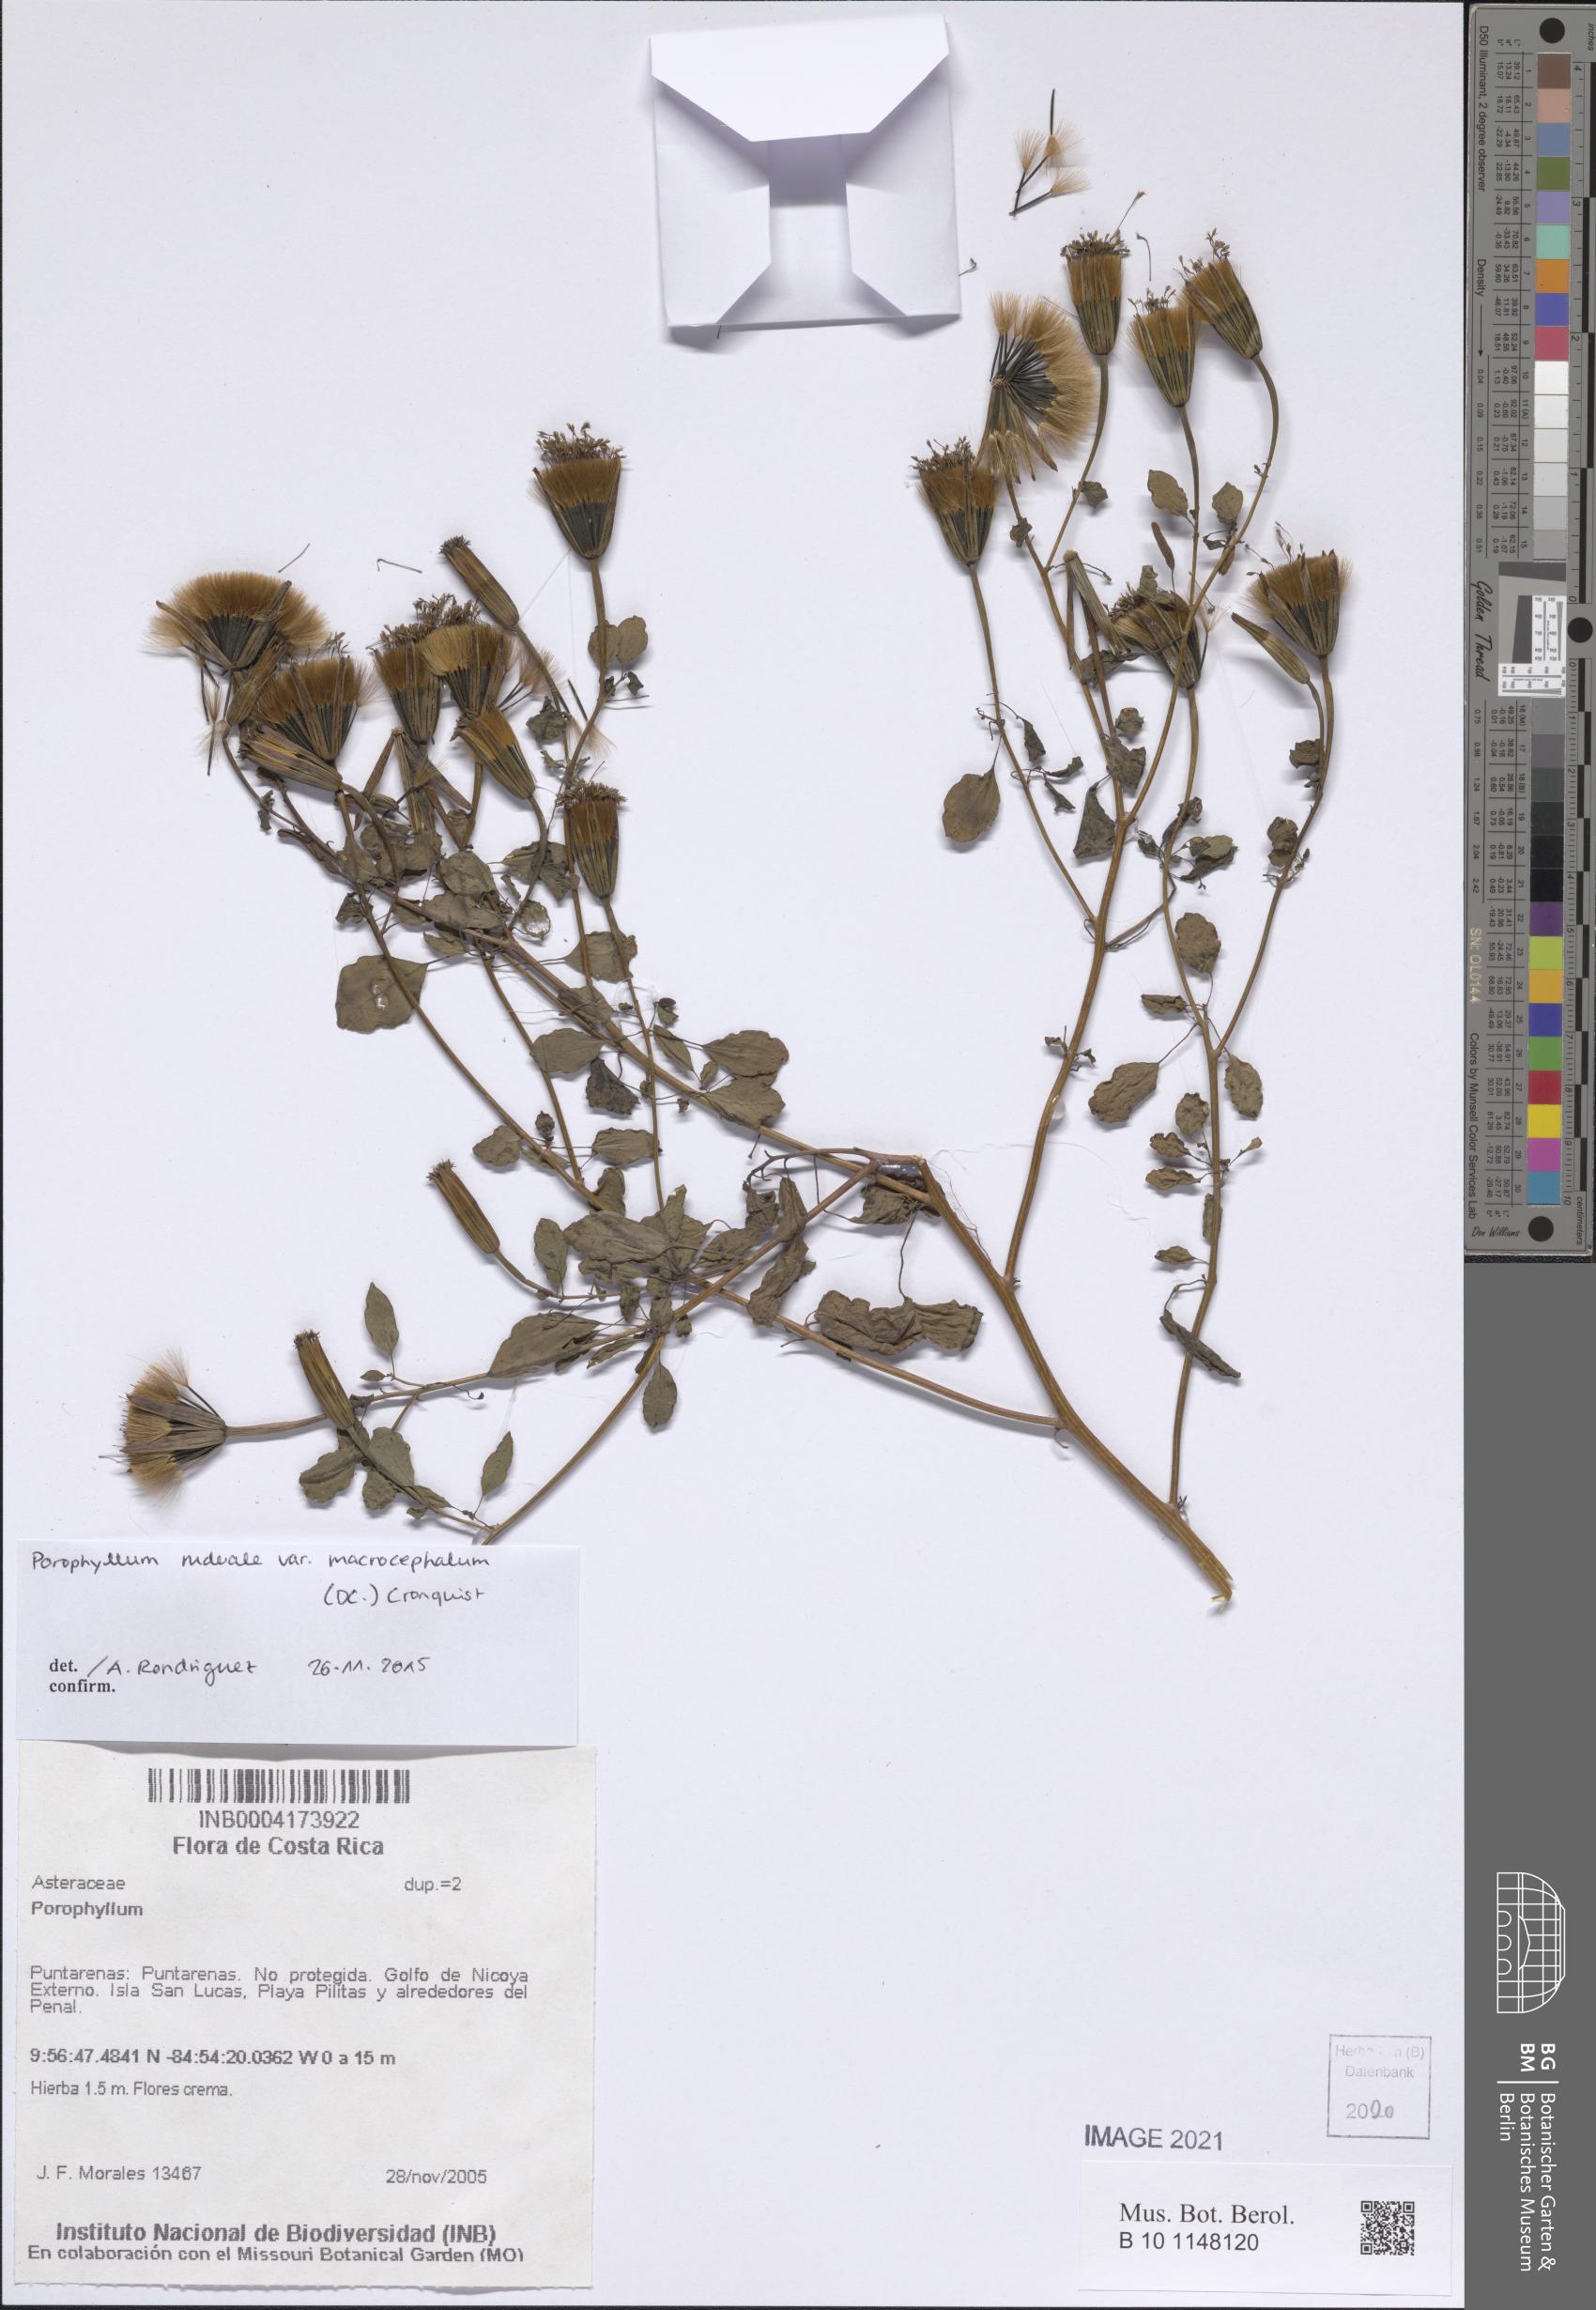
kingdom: Plantae
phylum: Tracheophyta
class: Magnoliopsida
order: Asterales
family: Asteraceae
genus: Porophyllum
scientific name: Porophyllum ruderale
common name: Yerba porosa
